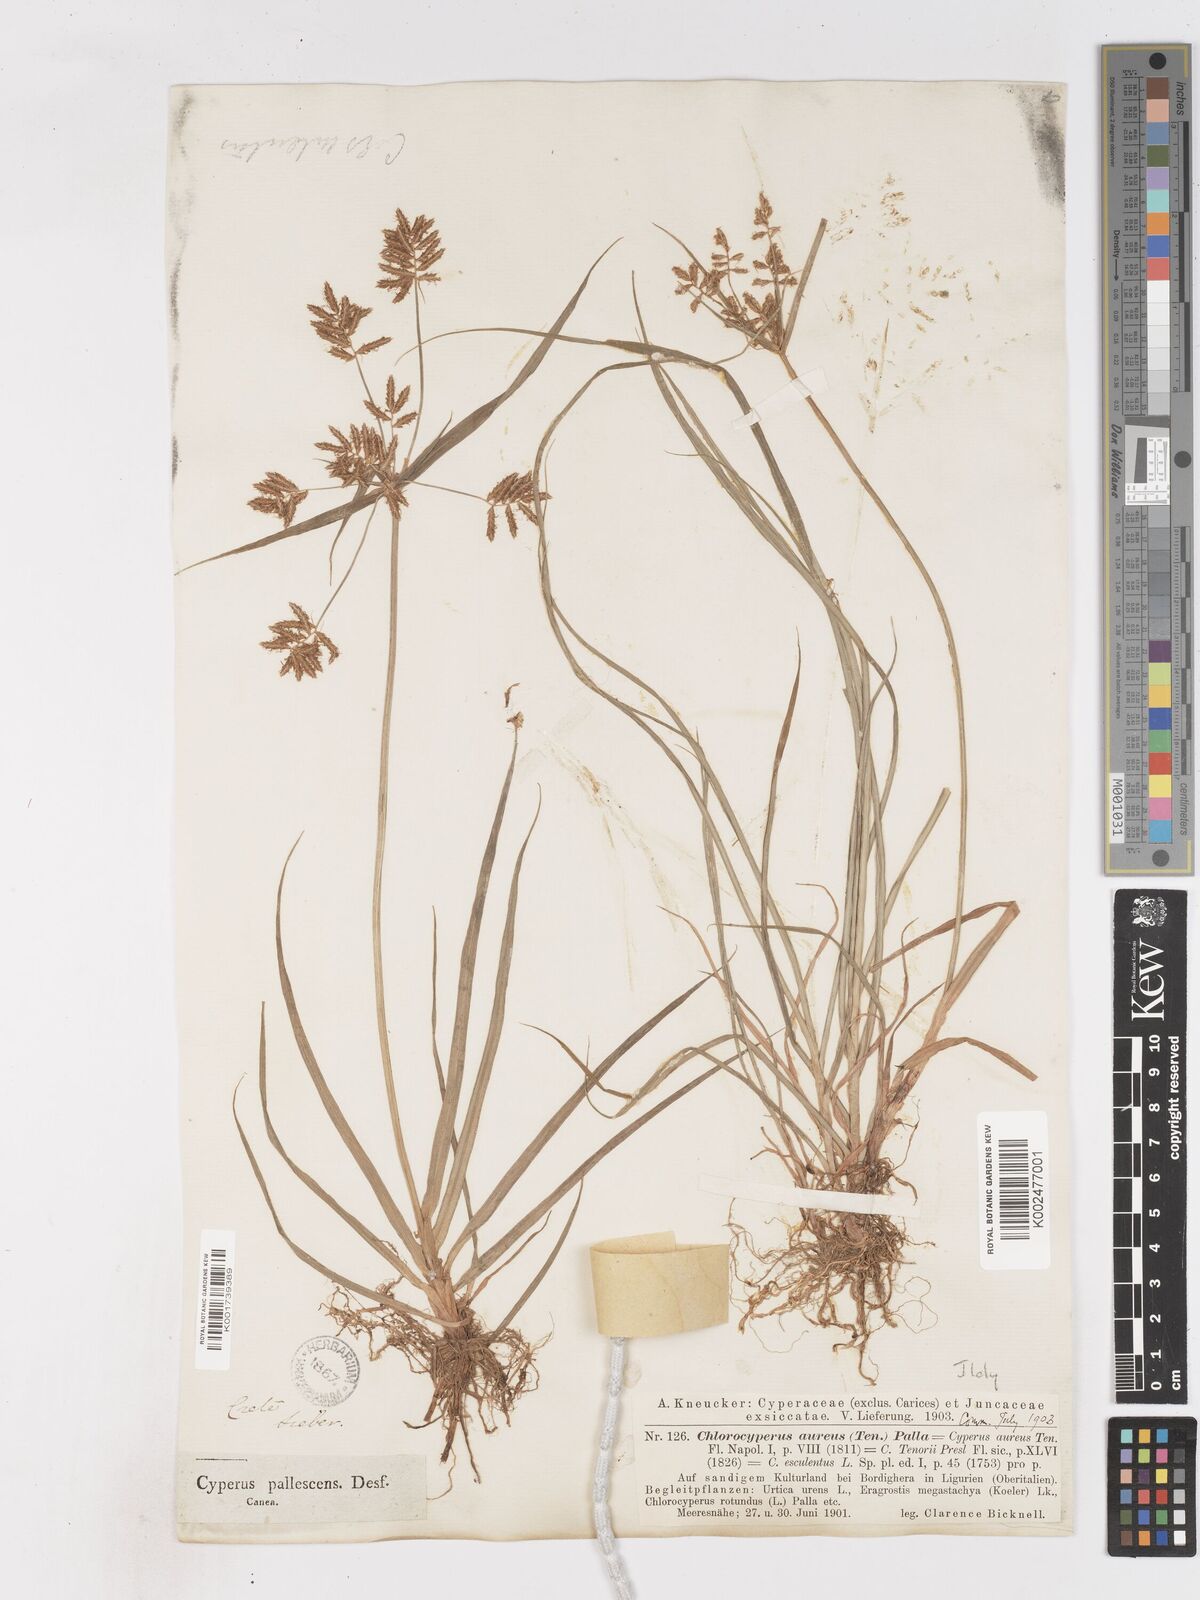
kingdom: Plantae
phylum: Tracheophyta
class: Liliopsida
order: Poales
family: Cyperaceae
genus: Cyperus
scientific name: Cyperus esculentus
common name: Yellow nutsedge
